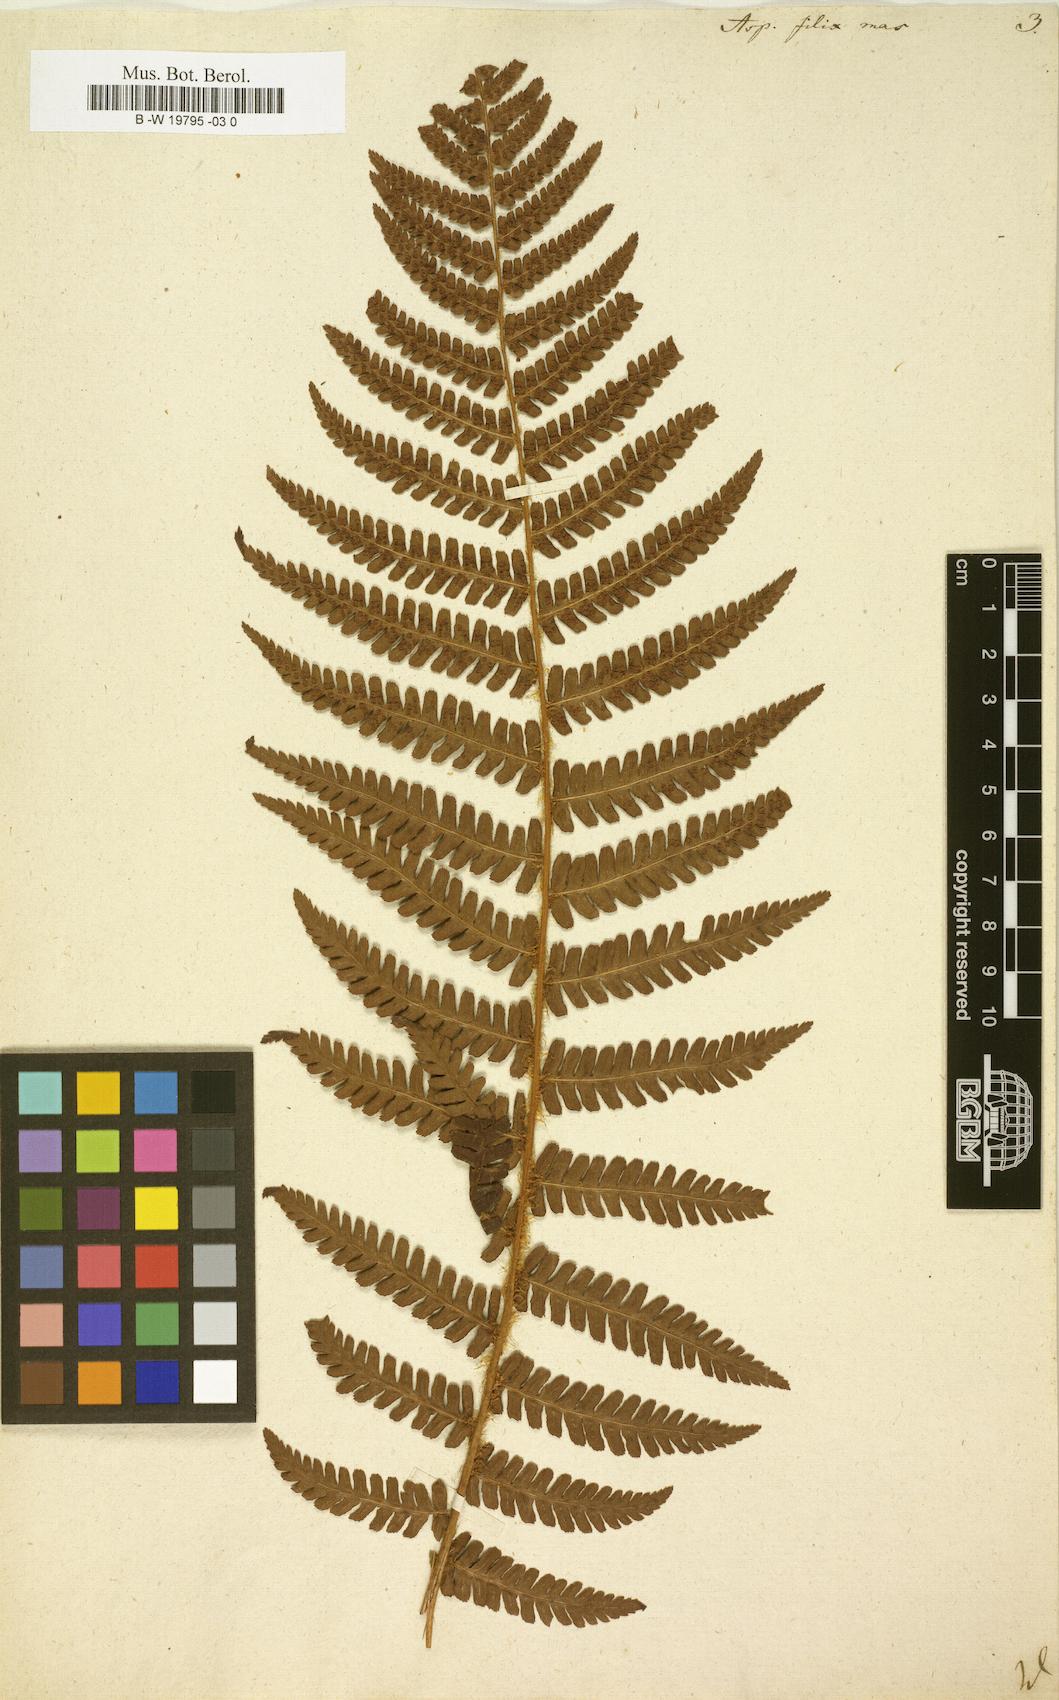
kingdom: Plantae
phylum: Tracheophyta
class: Polypodiopsida
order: Polypodiales
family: Dryopteridaceae
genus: Dryopteris
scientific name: Dryopteris filix-mas
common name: Male fern
